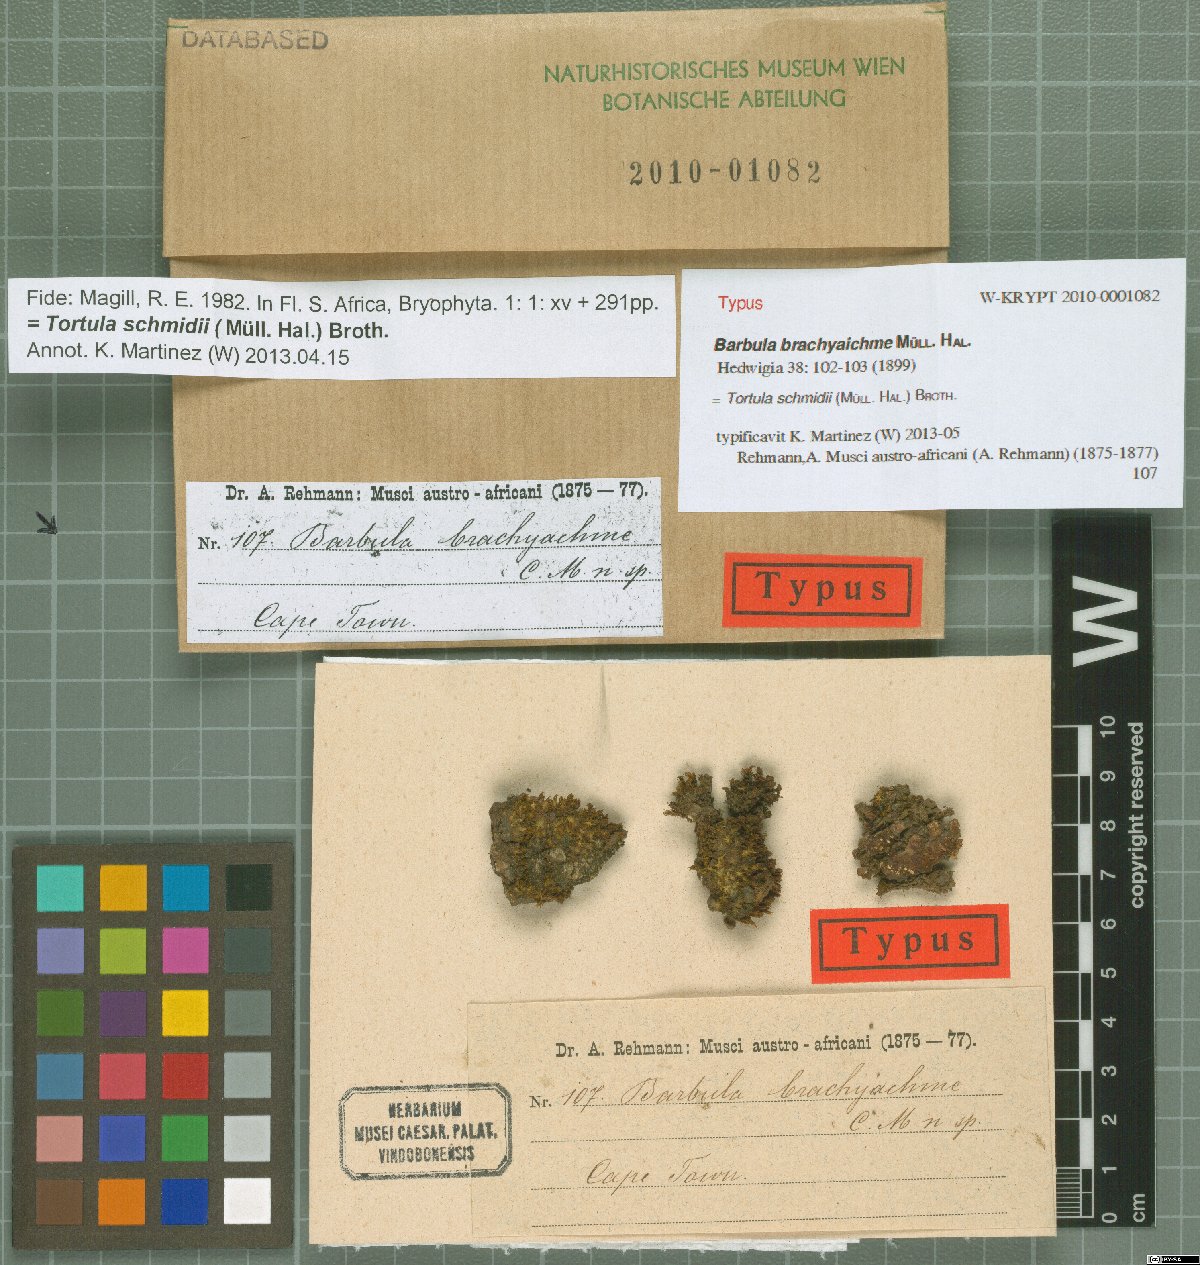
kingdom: Plantae
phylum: Bryophyta
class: Bryopsida
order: Pottiales
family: Pottiaceae
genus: Syntrichia
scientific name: Syntrichia fragilis
